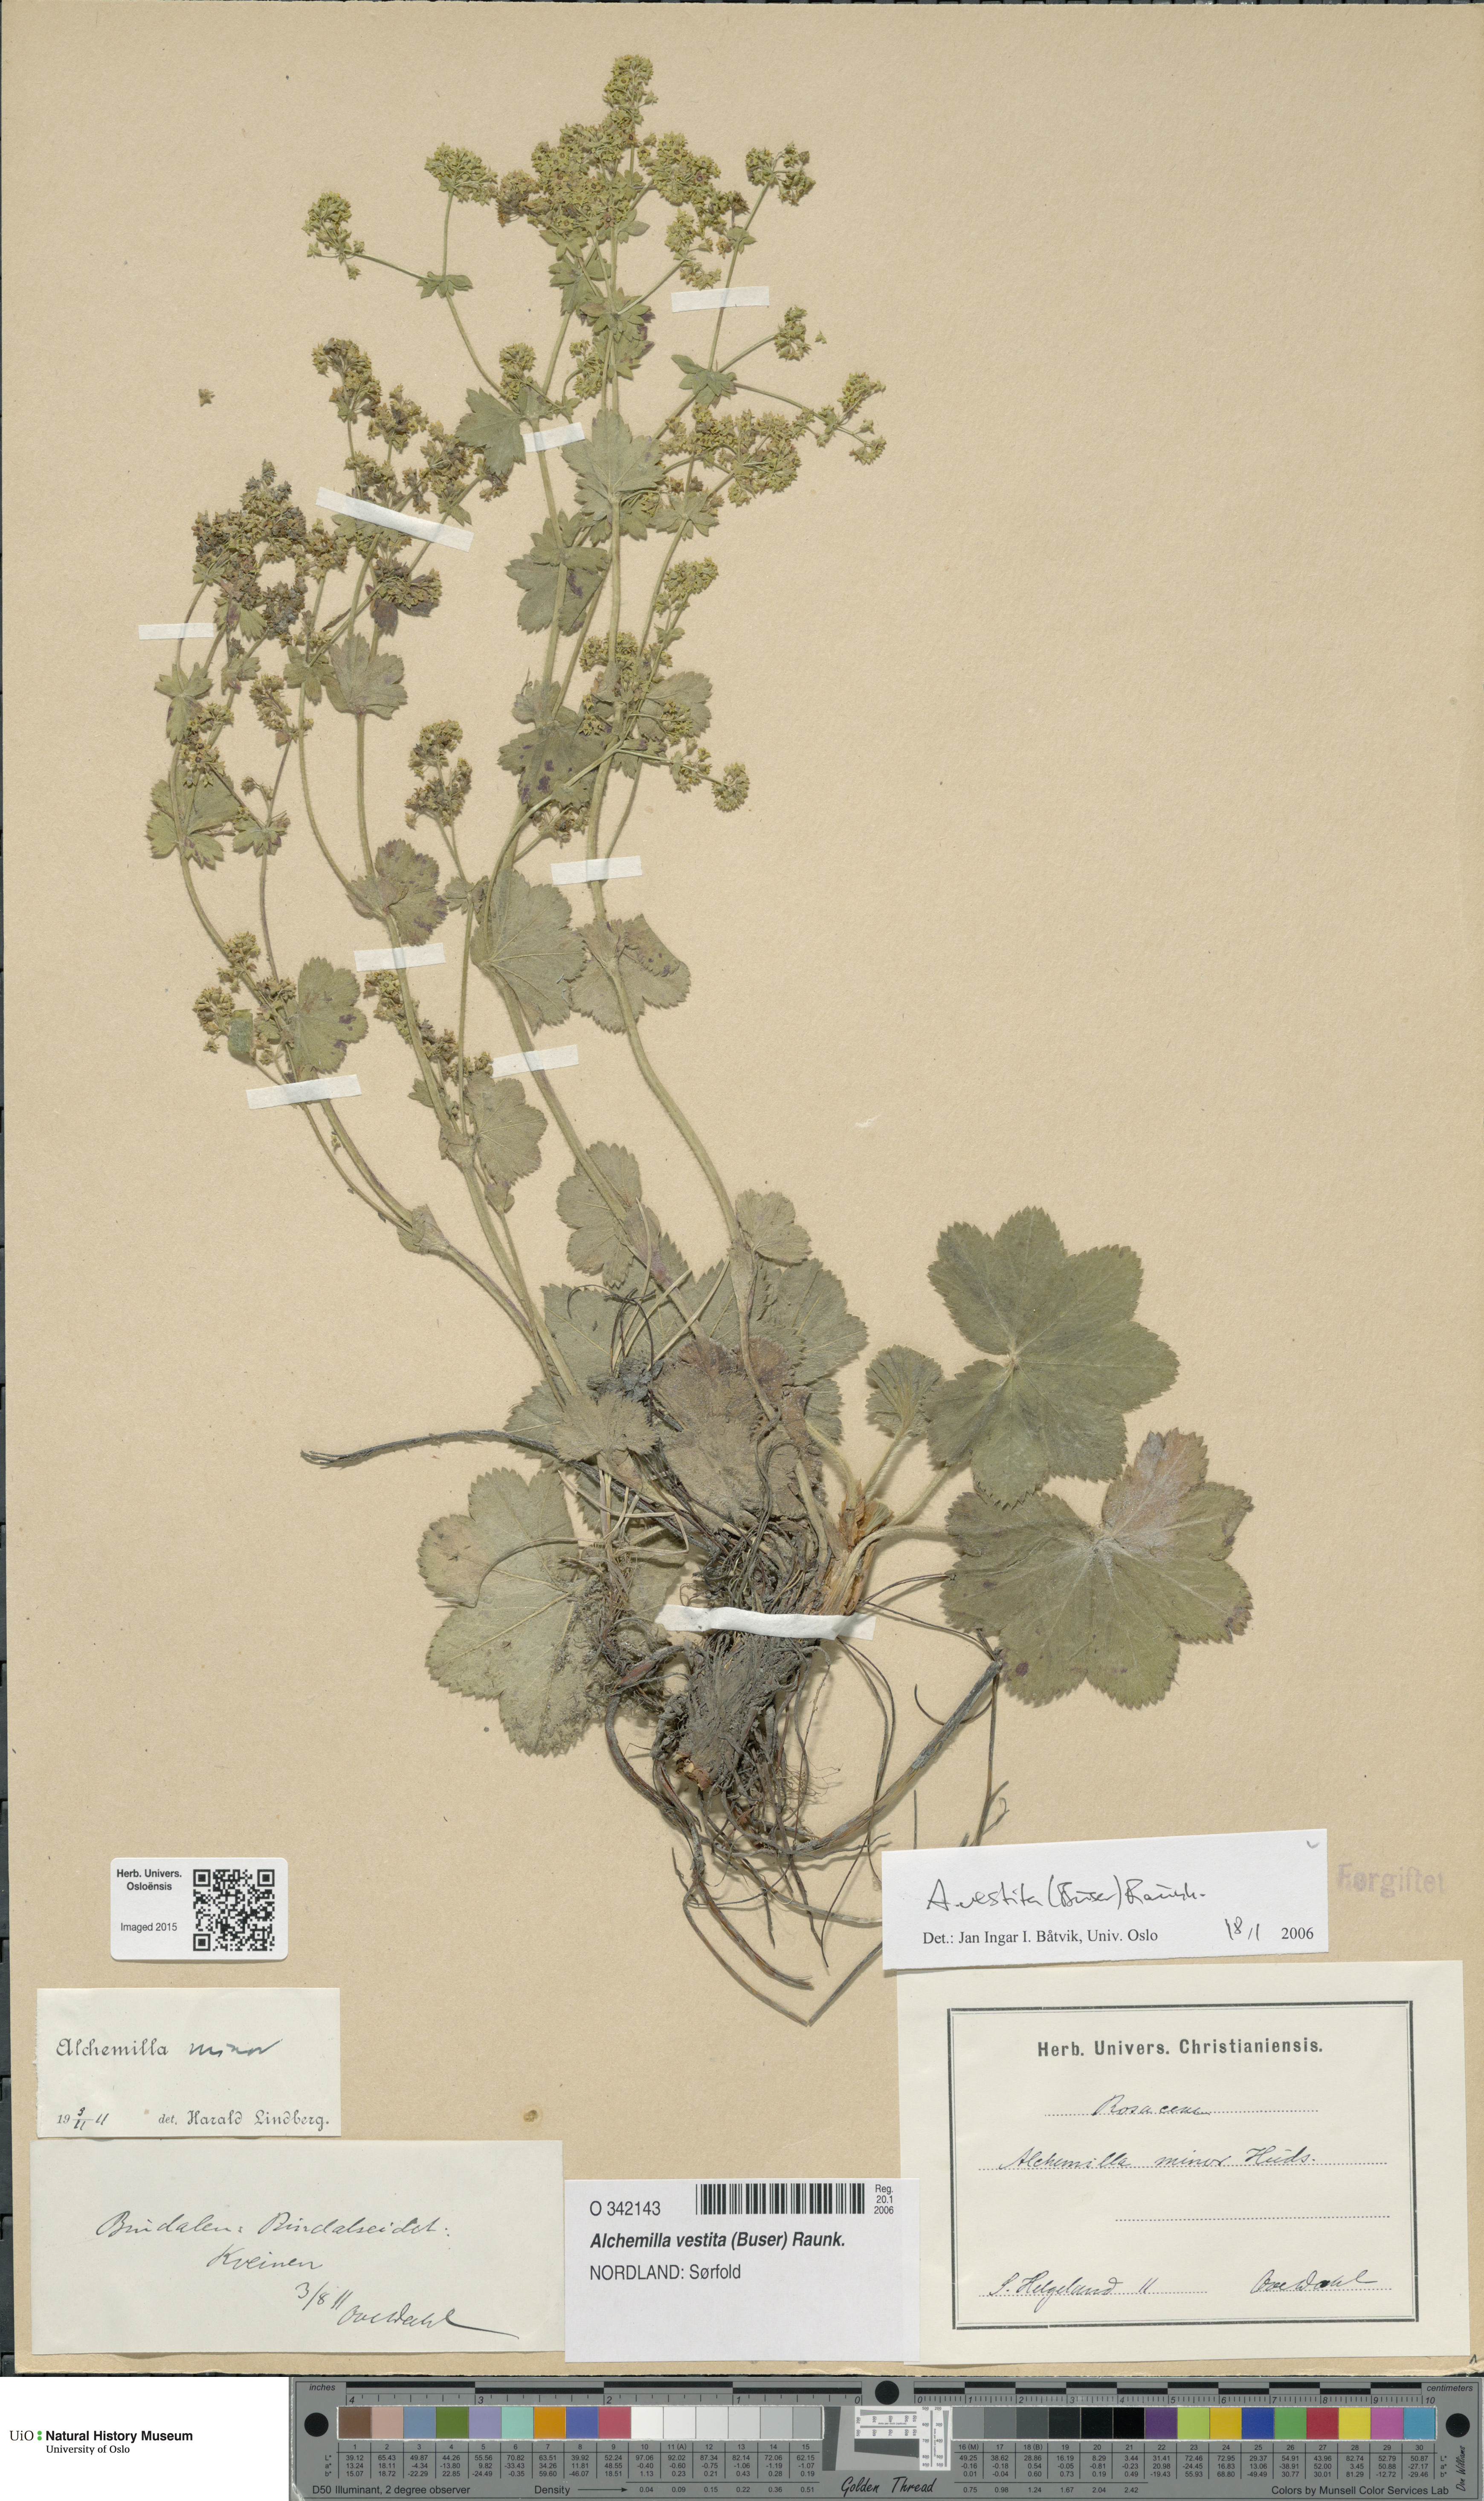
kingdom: Plantae
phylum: Tracheophyta
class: Magnoliopsida
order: Rosales
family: Rosaceae
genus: Alchemilla
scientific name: Alchemilla filicaulis
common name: Hairy lady's-mantle
